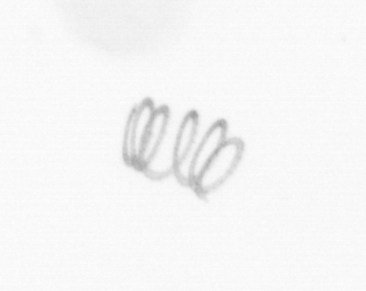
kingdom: Chromista
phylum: Ochrophyta
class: Bacillariophyceae
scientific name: Bacillariophyceae
